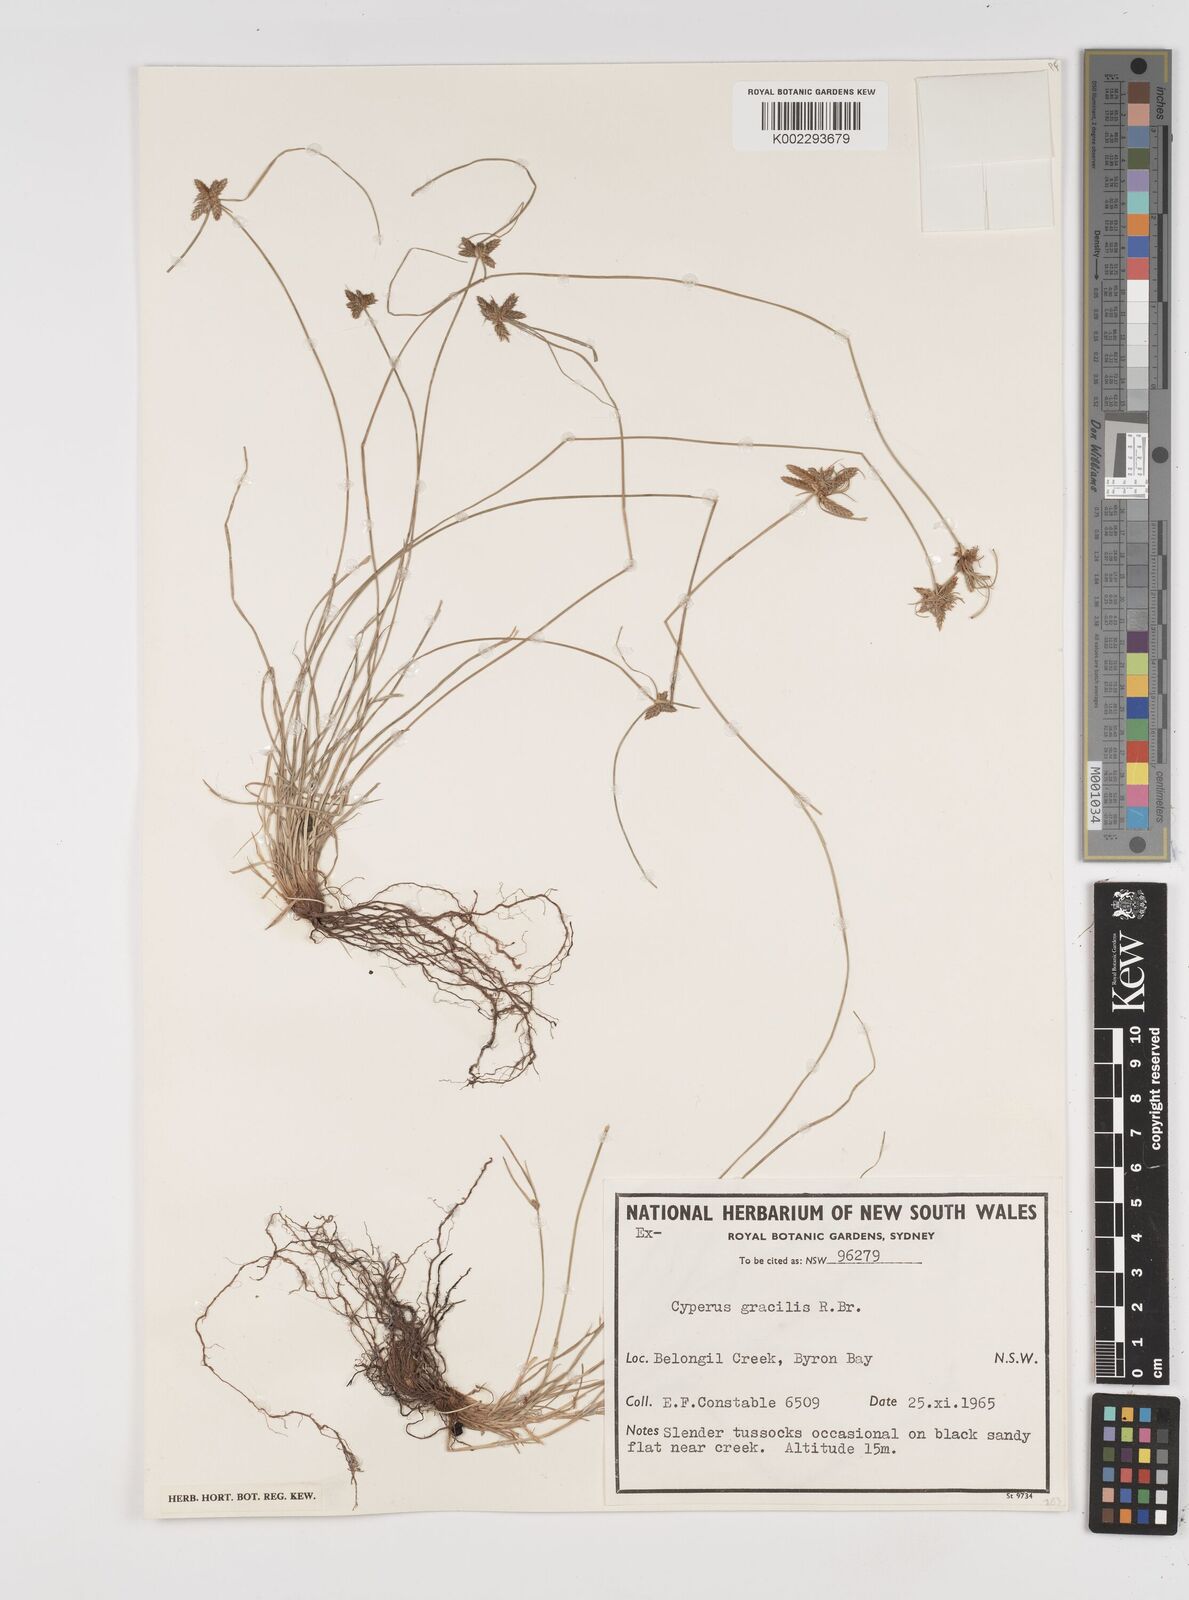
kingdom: Plantae
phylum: Tracheophyta
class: Liliopsida
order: Poales
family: Cyperaceae
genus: Cyperus
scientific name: Cyperus gracilis
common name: Slimjim flatsedge
